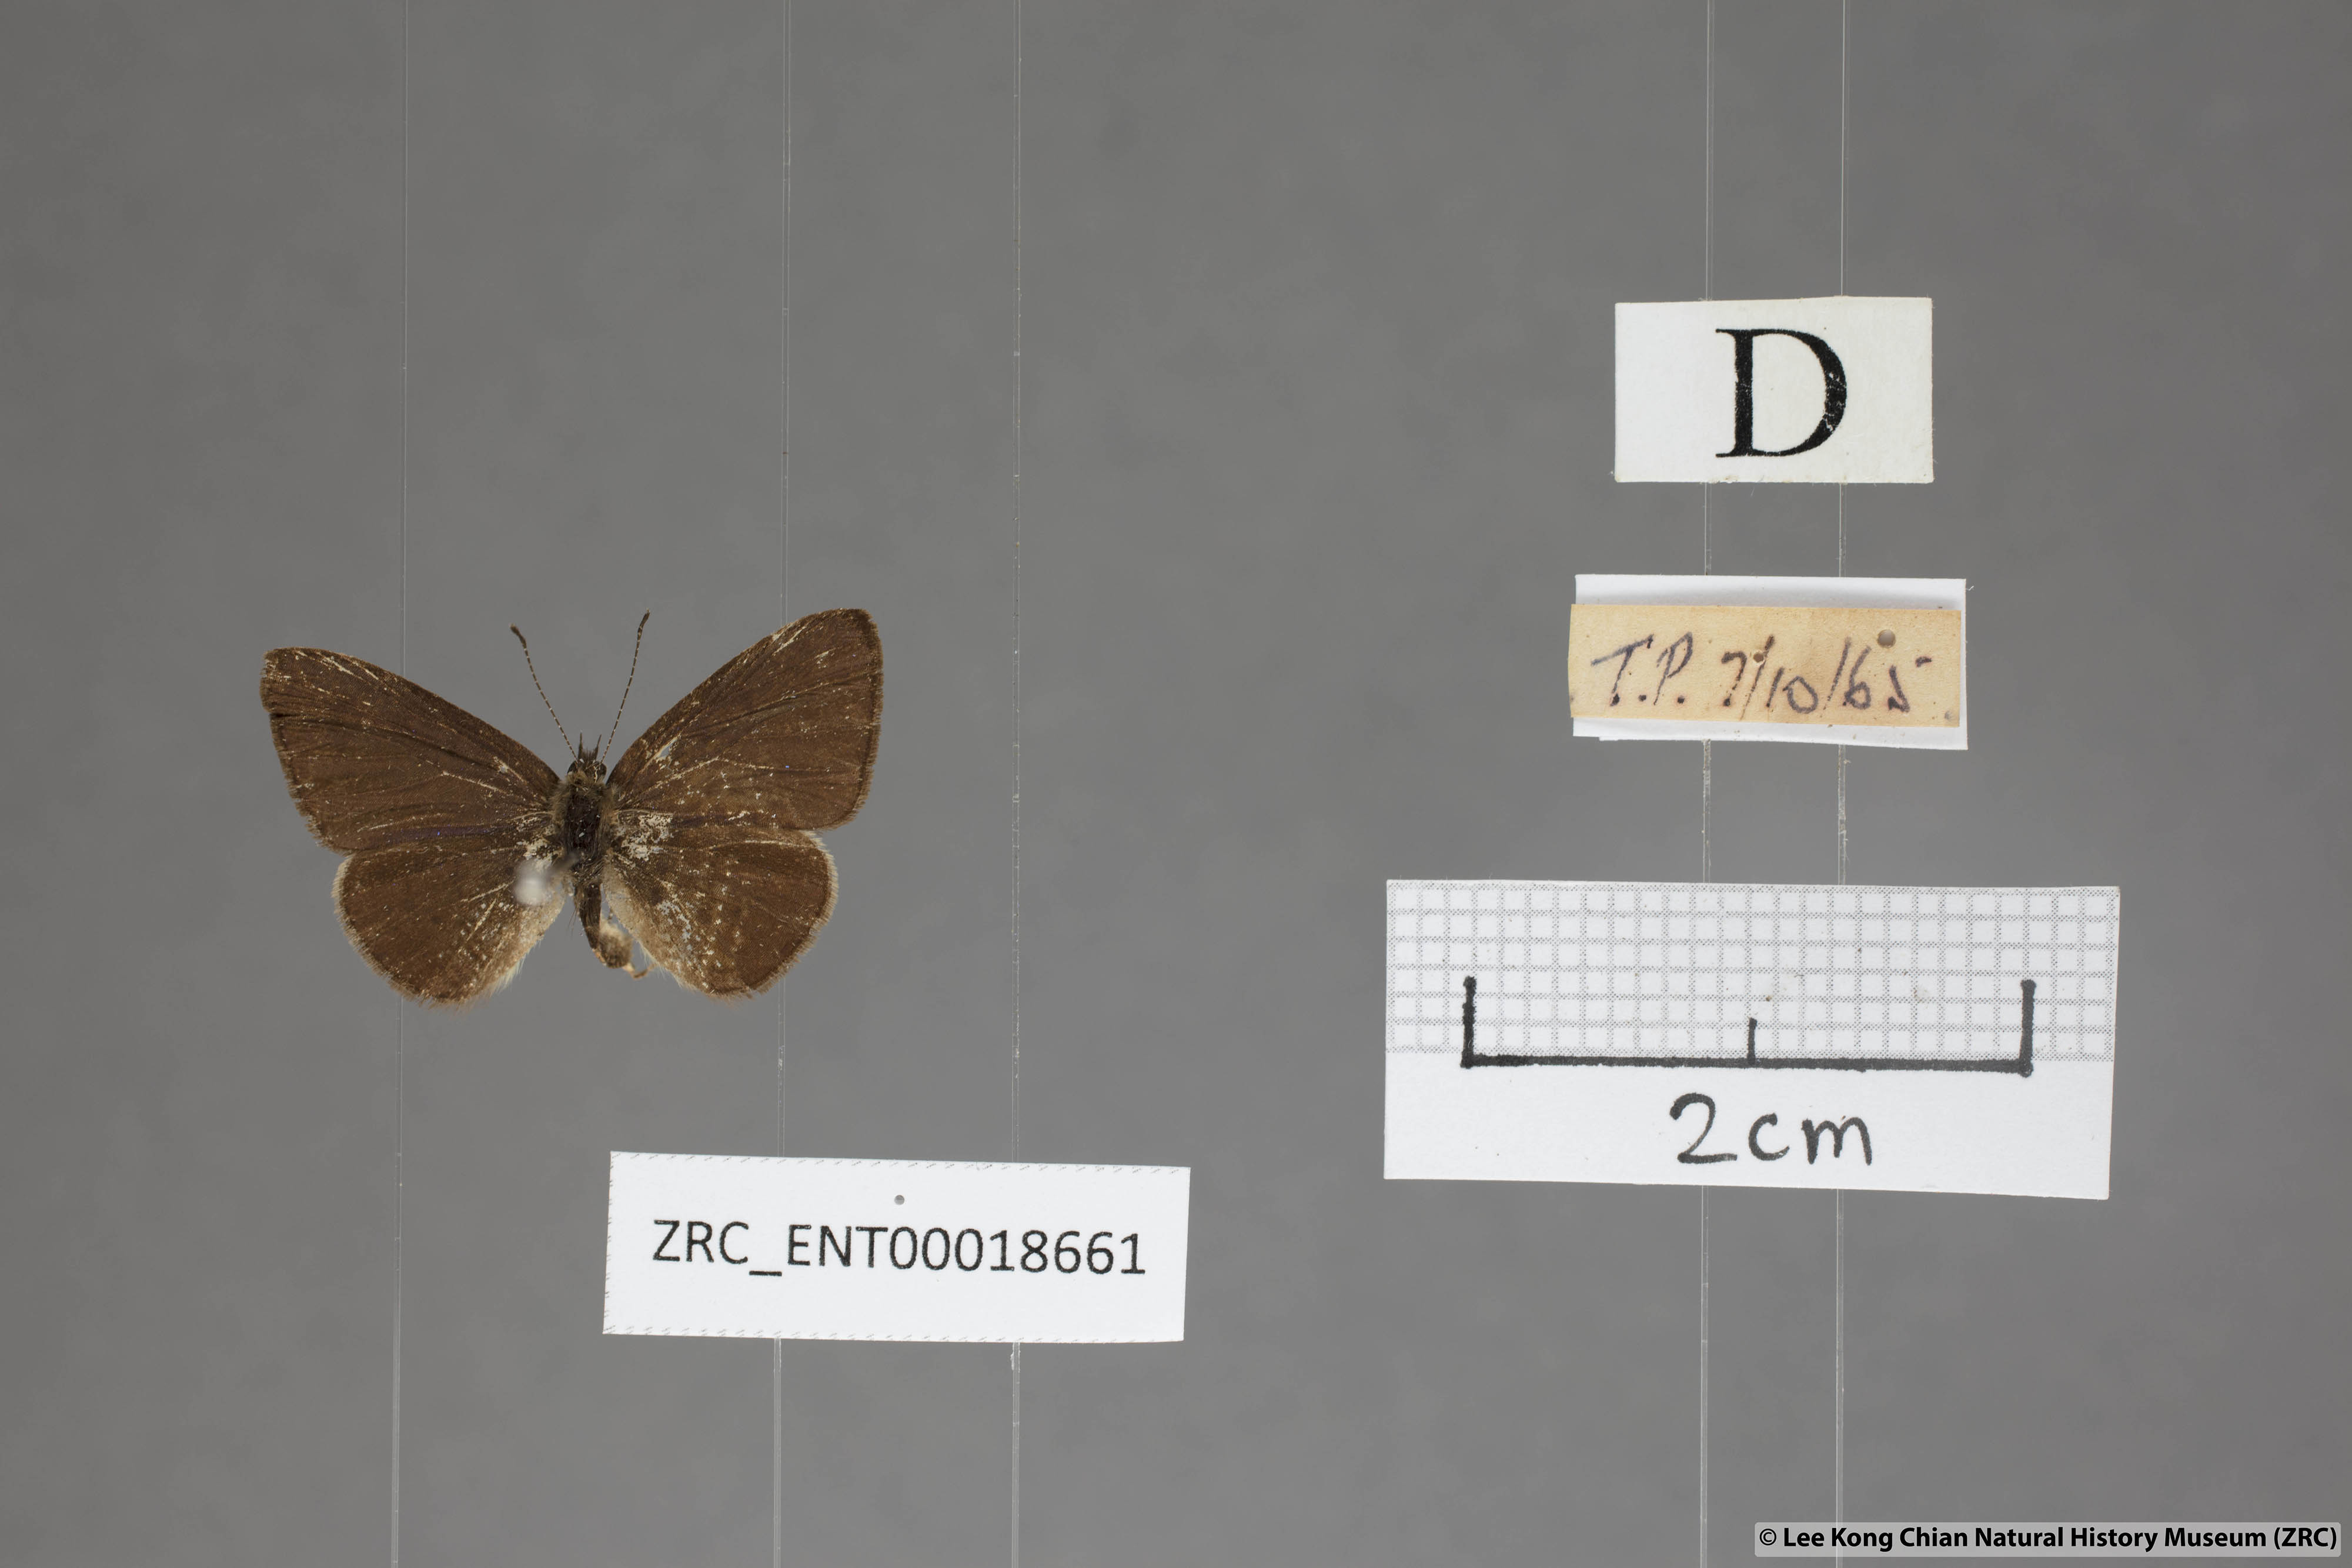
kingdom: Animalia
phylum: Arthropoda
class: Insecta
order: Lepidoptera
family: Lycaenidae
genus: Una
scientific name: Una usta
